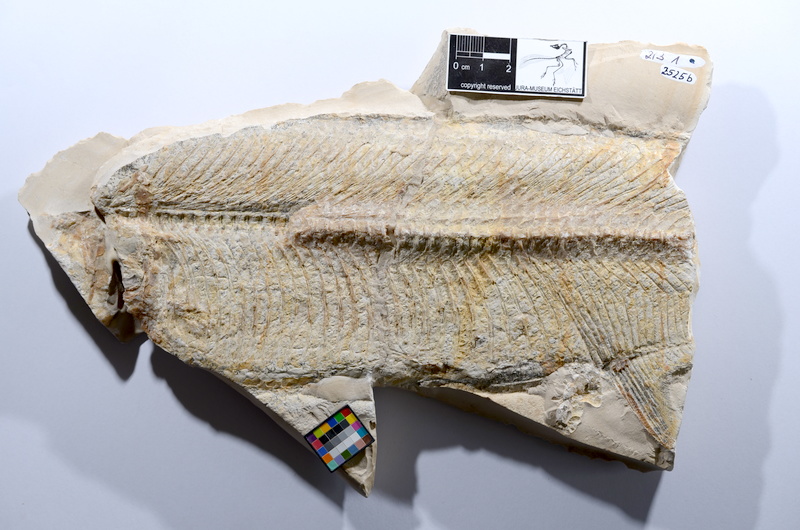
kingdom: Animalia
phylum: Chordata
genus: Thrissops
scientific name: Thrissops subovatus
